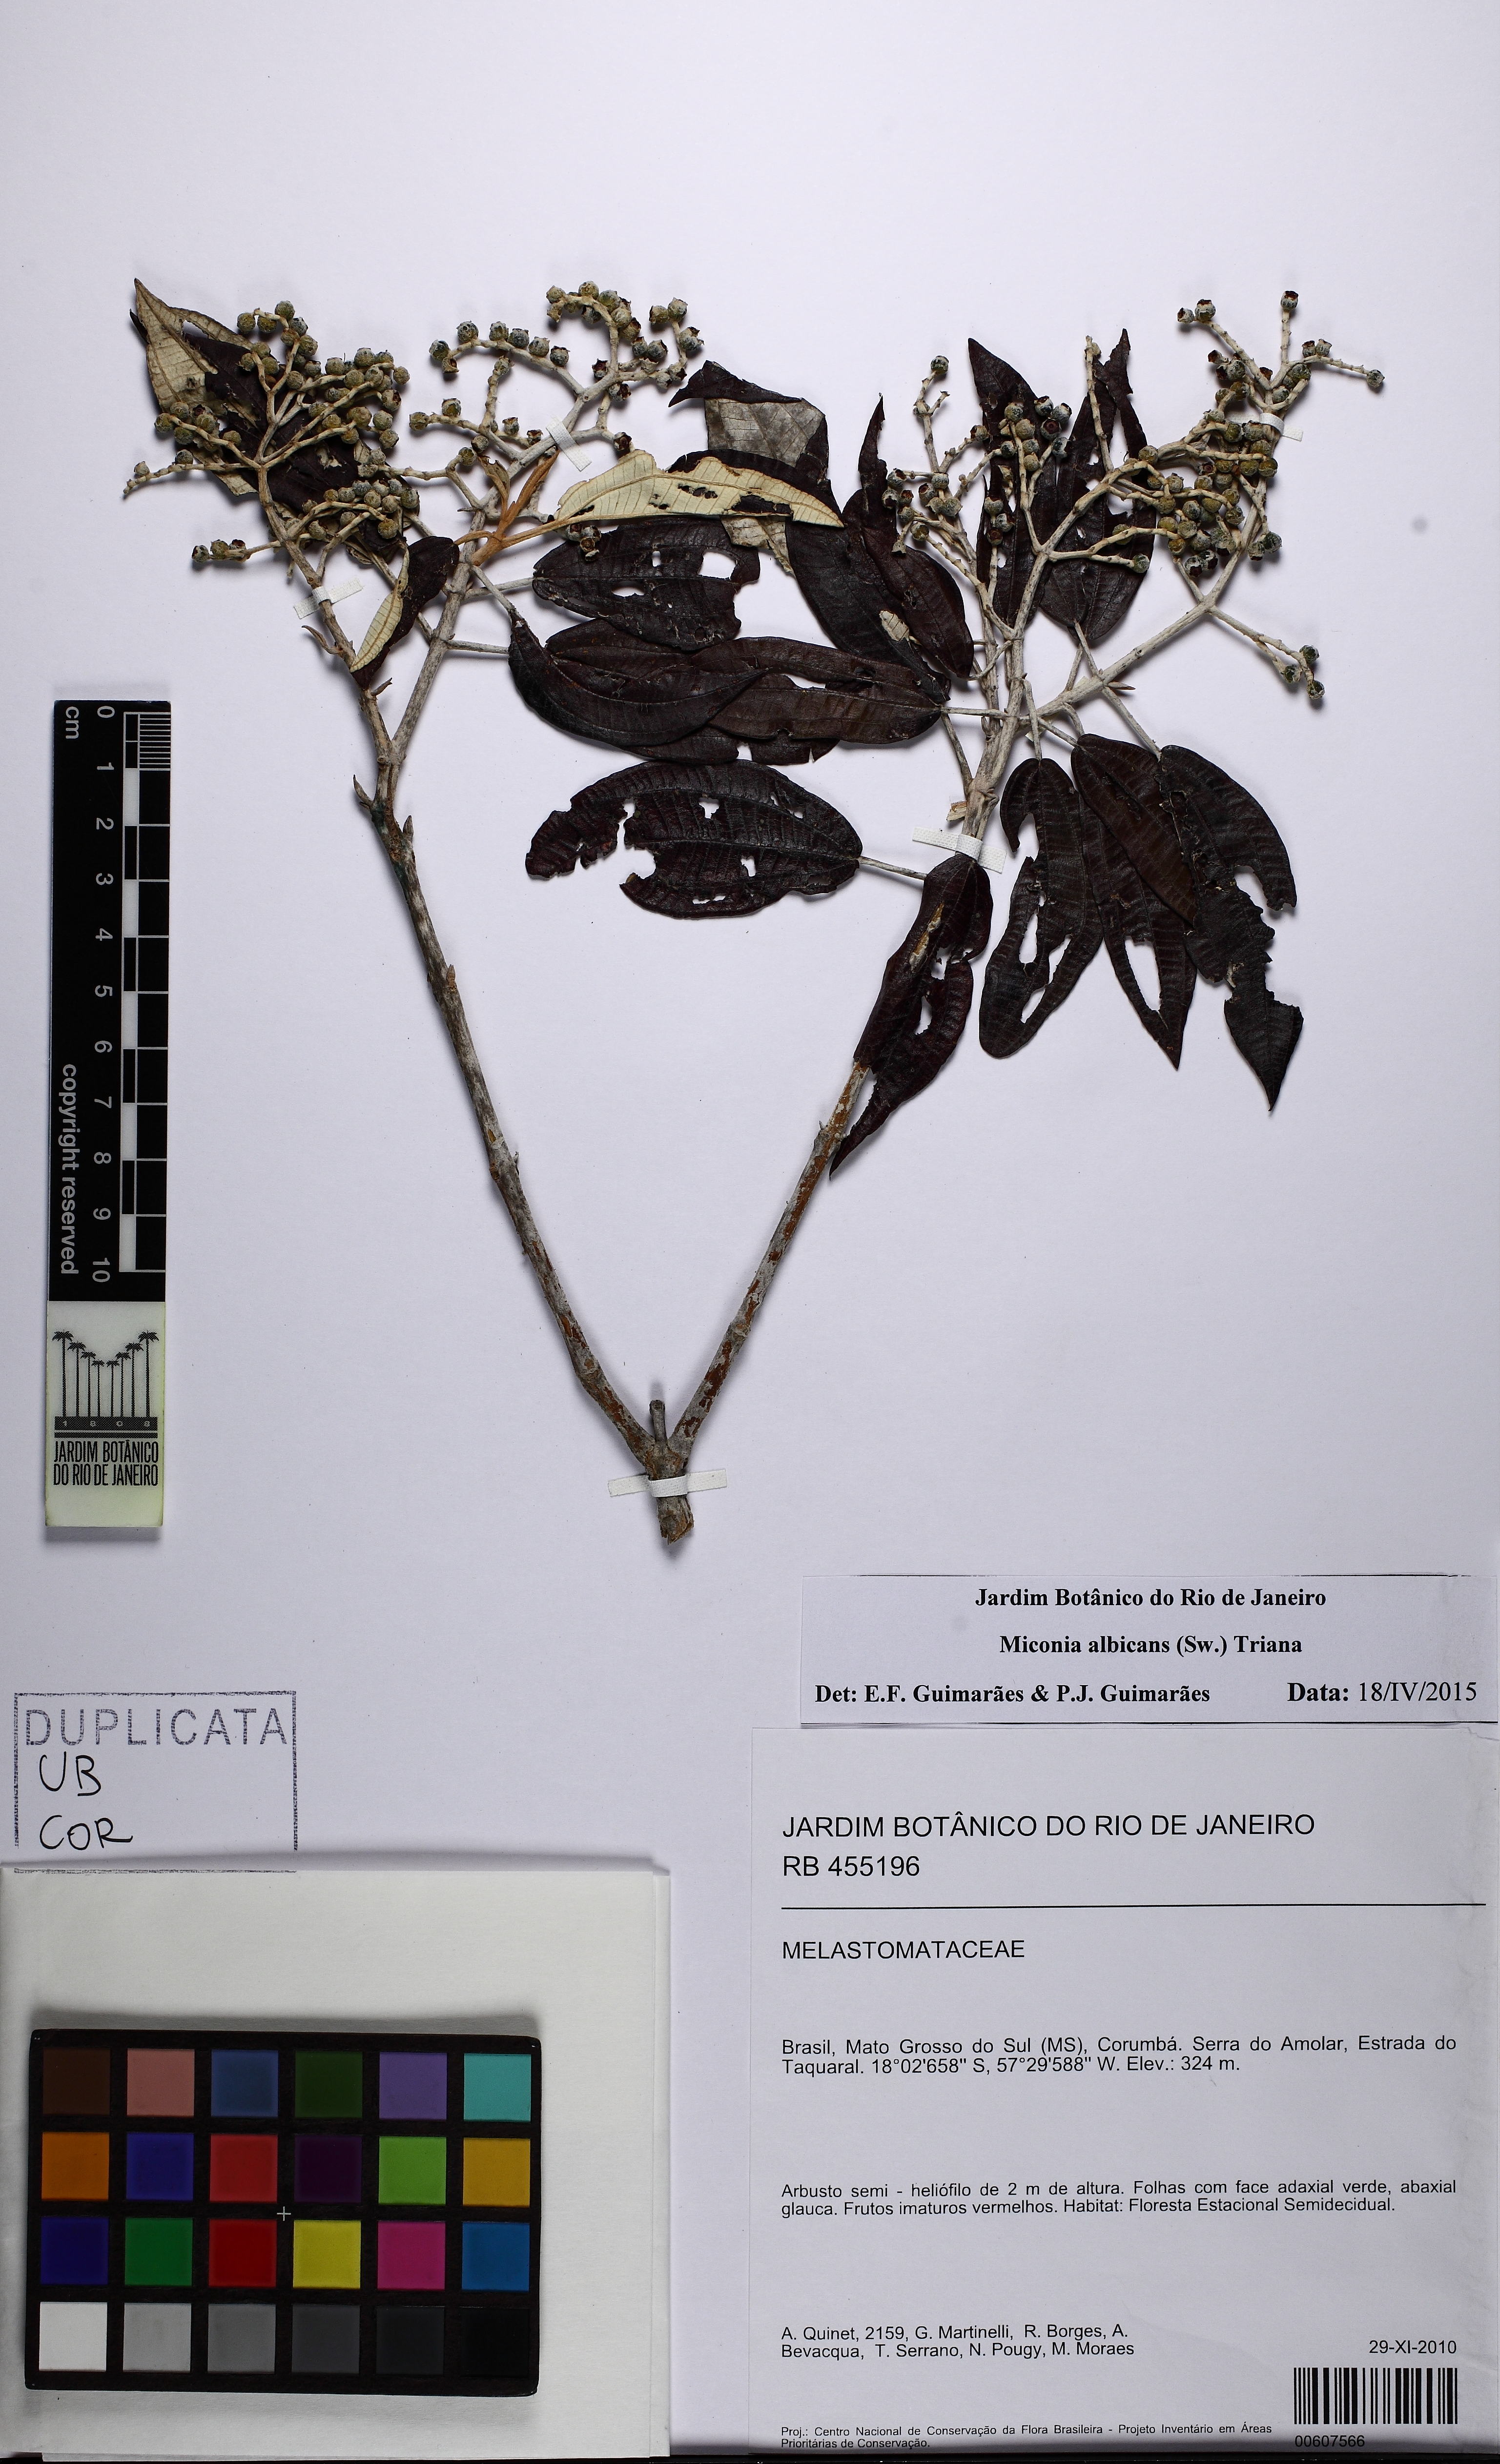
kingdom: Plantae
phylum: Tracheophyta
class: Magnoliopsida
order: Myrtales
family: Melastomataceae
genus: Miconia
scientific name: Miconia albicans
